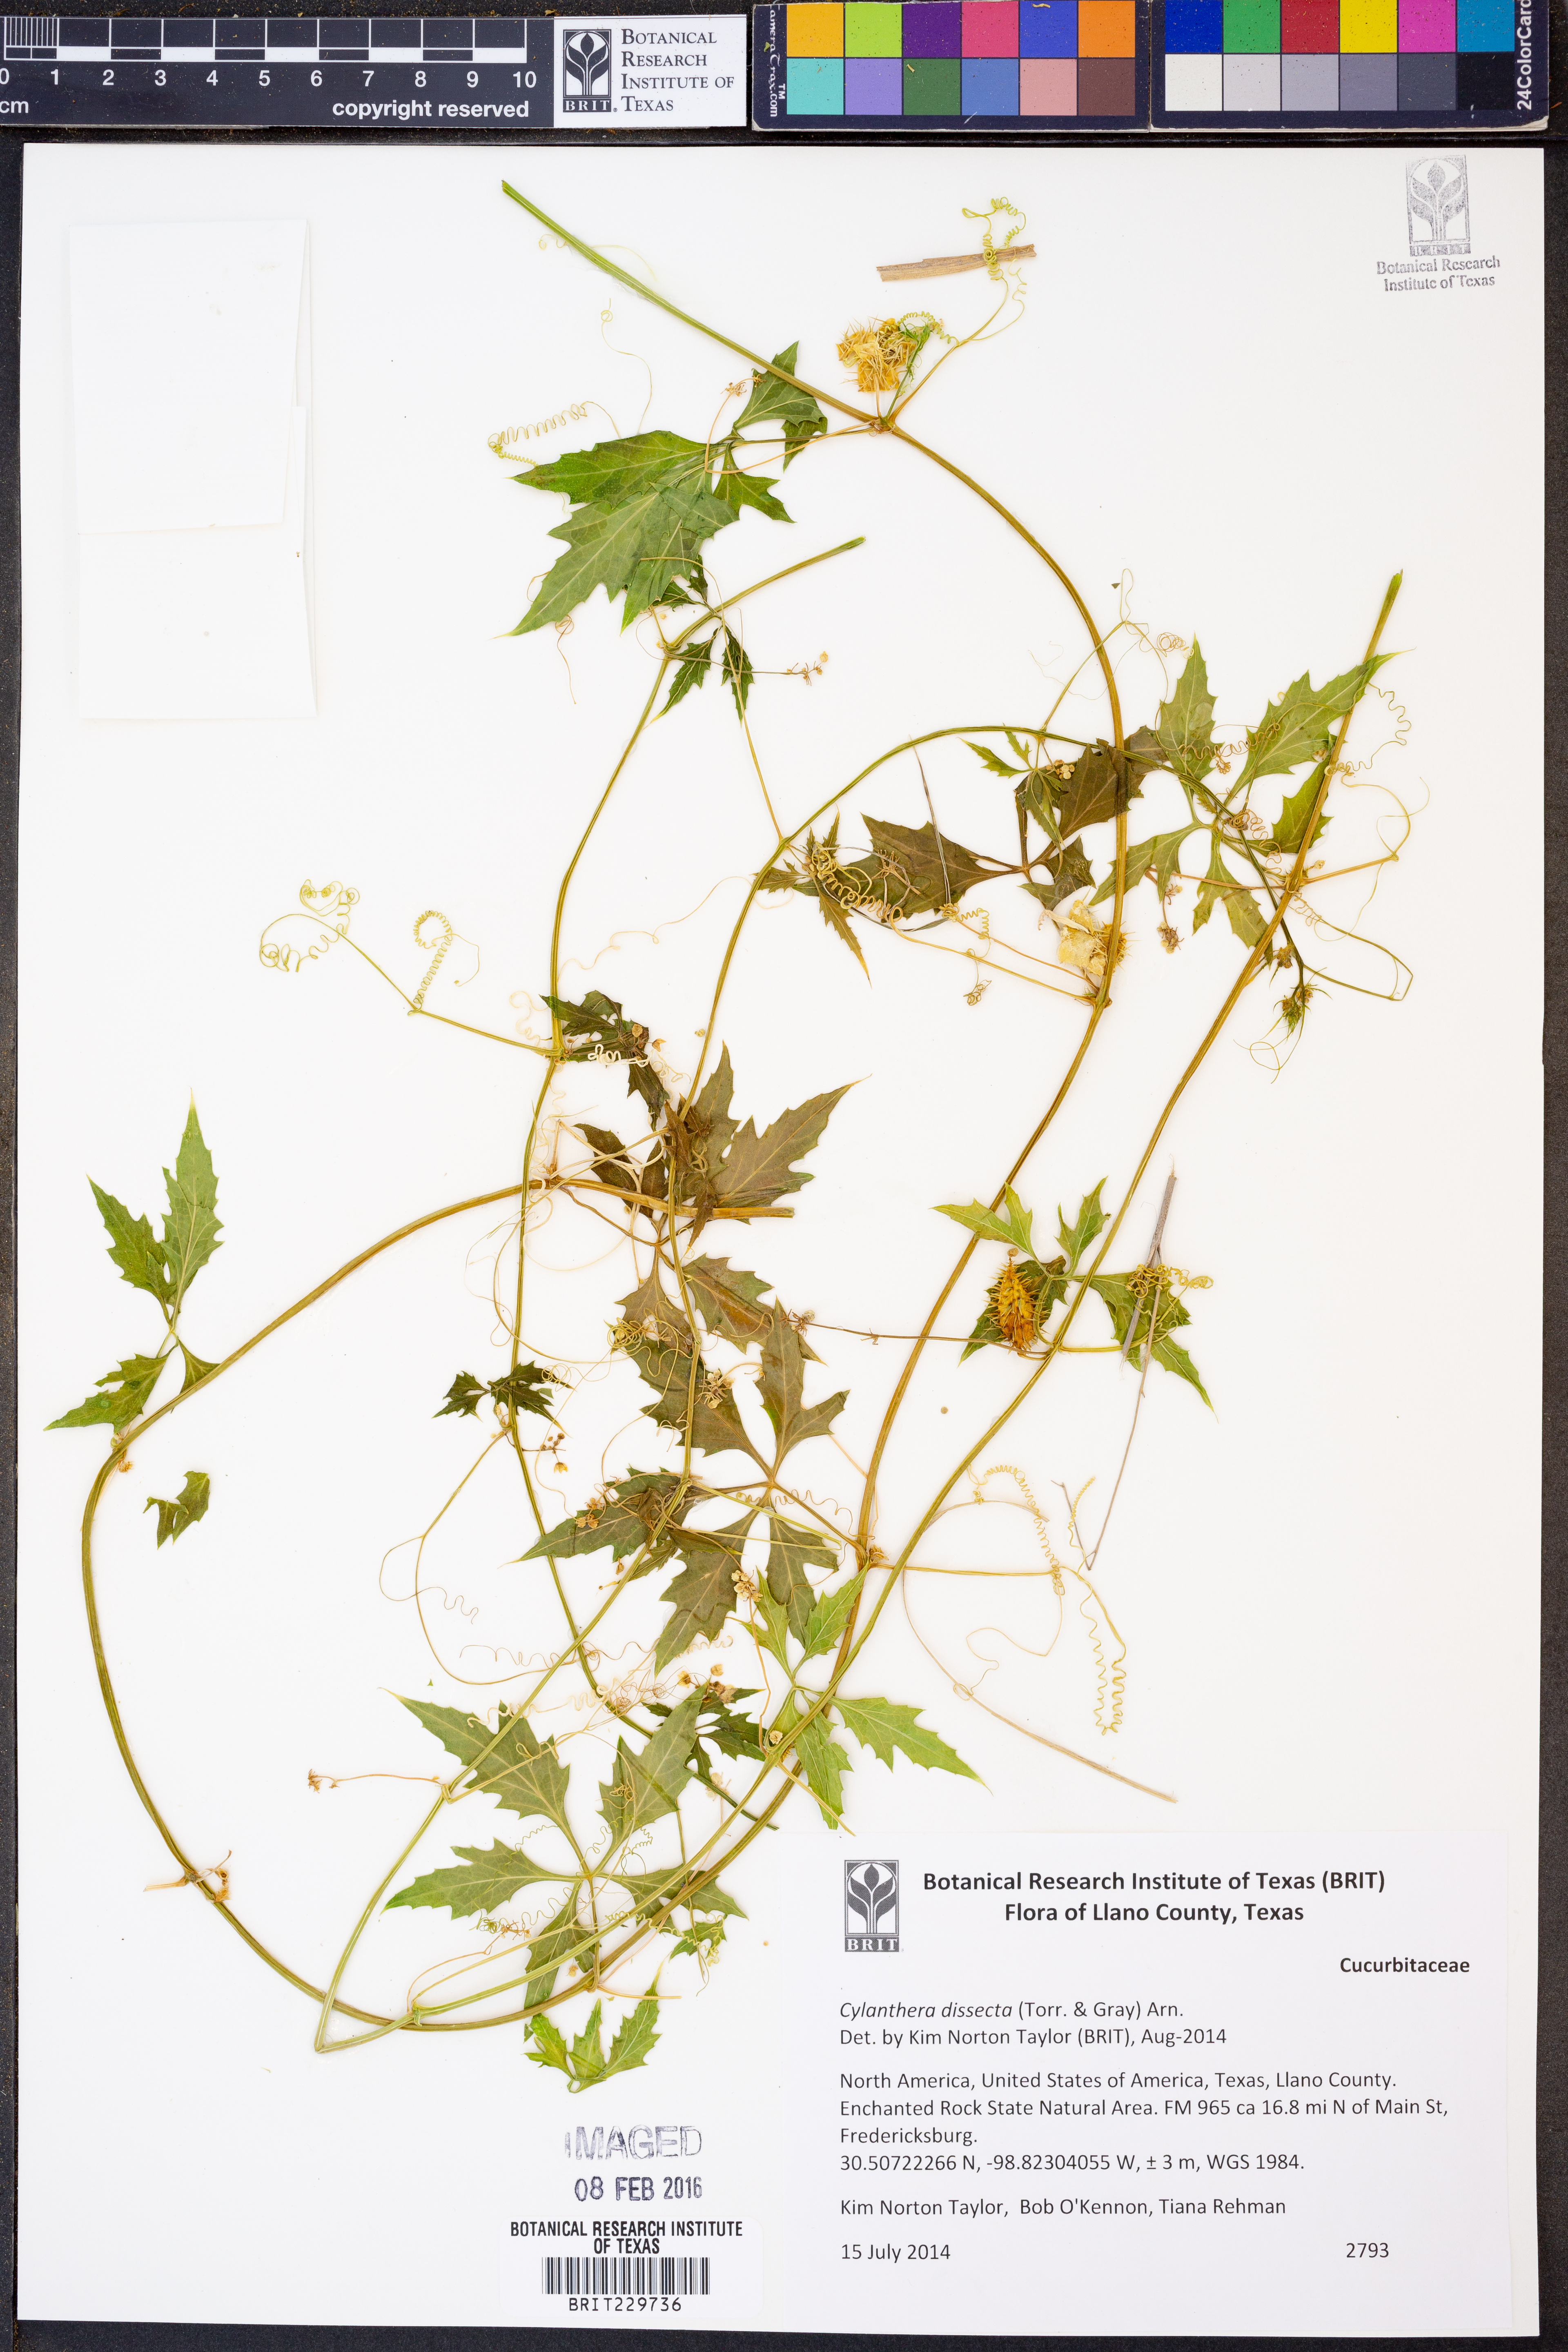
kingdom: Plantae
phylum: Tracheophyta
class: Magnoliopsida
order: Cucurbitales
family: Cucurbitaceae
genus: Cyclanthera
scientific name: Cyclanthera dissecta
